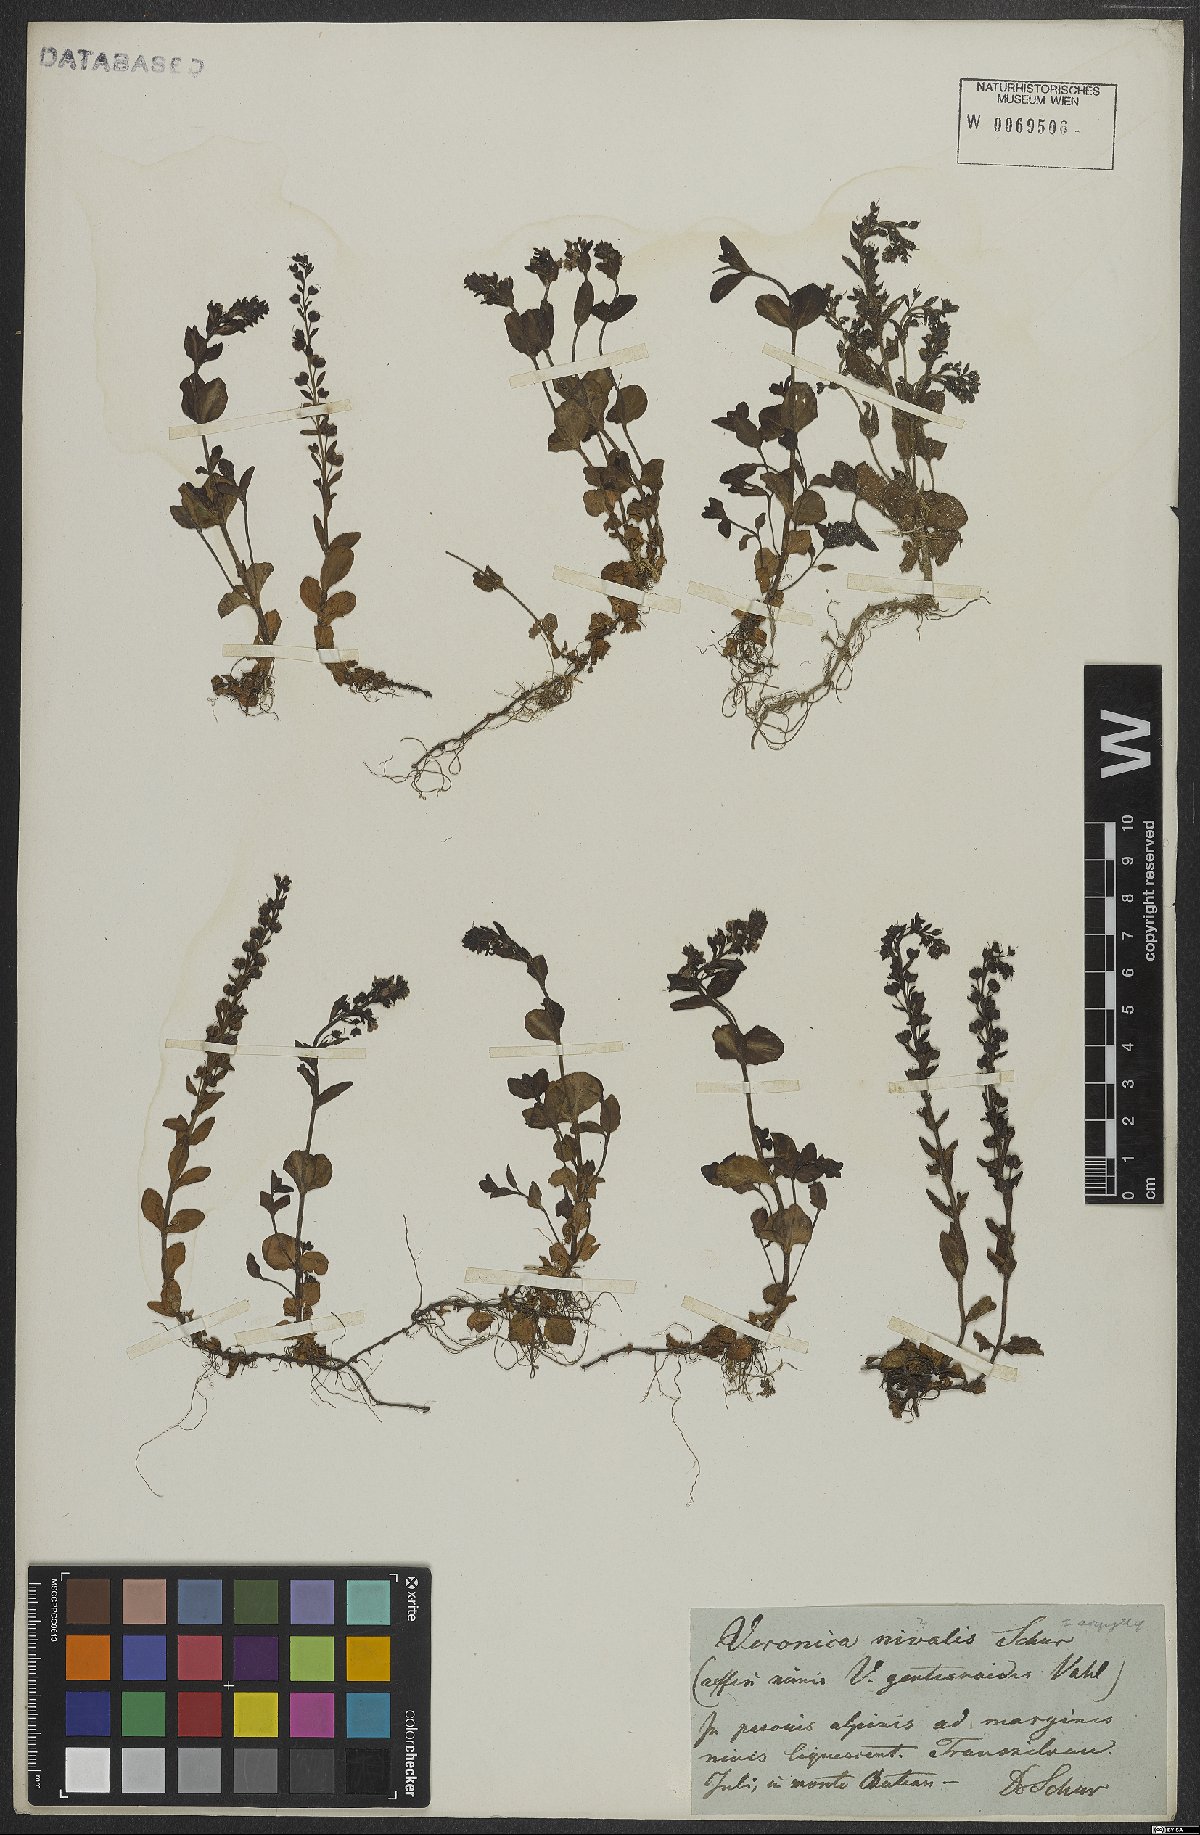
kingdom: Plantae
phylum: Tracheophyta
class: Magnoliopsida
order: Lamiales
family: Plantaginaceae
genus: Veronica
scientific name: Veronica gentianoides
